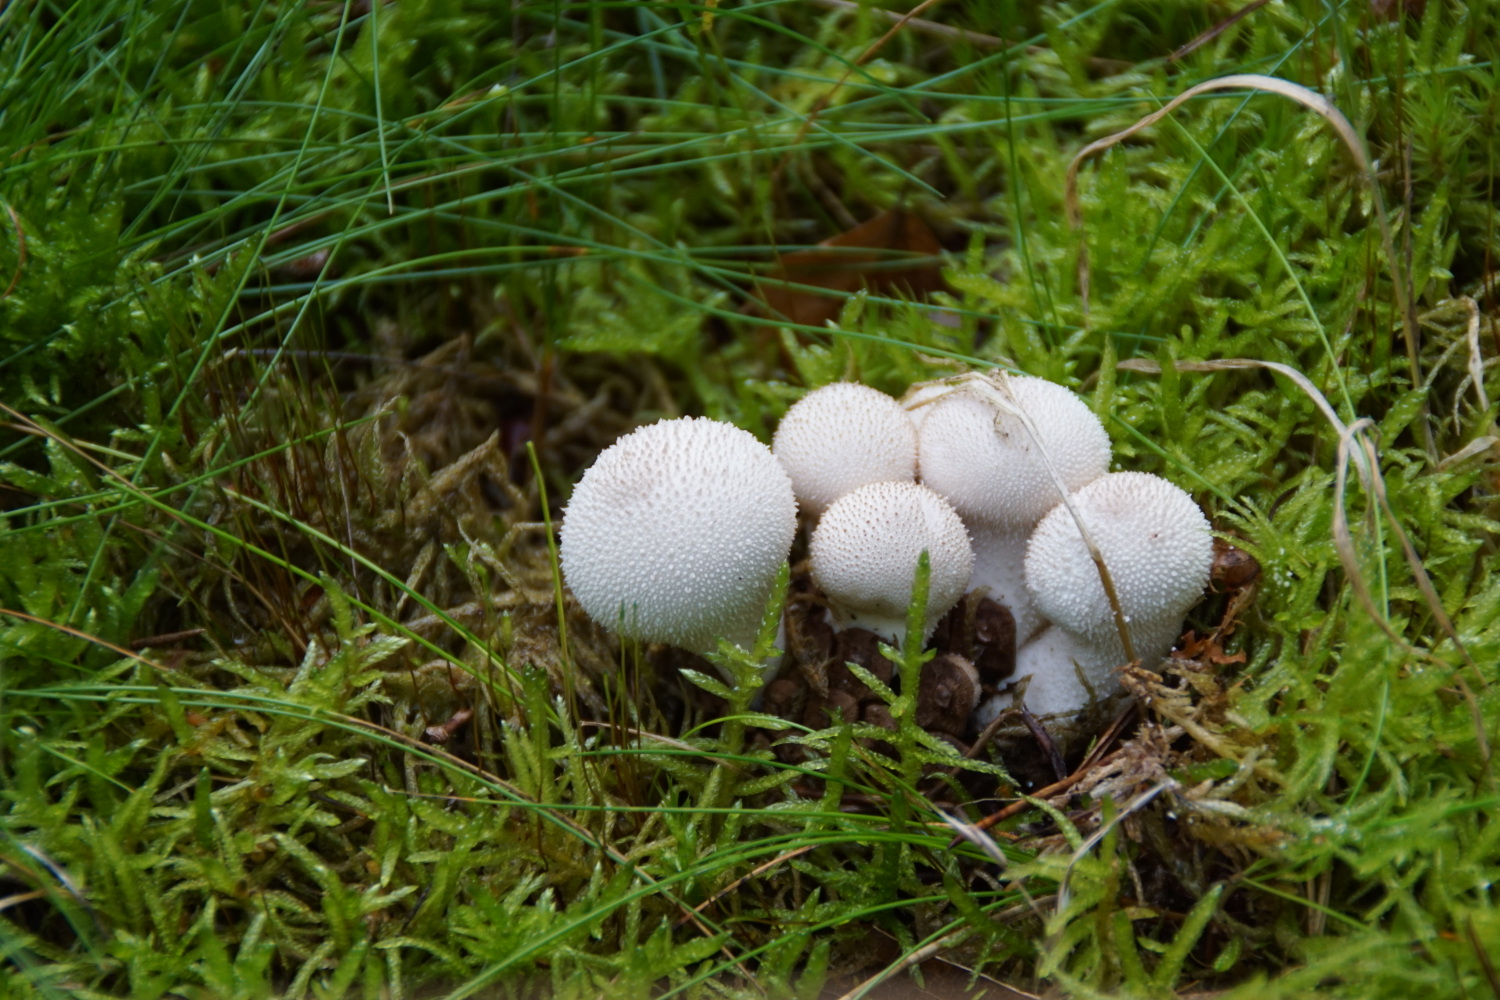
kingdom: Fungi
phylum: Basidiomycota
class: Agaricomycetes
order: Agaricales
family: Lycoperdaceae
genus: Lycoperdon
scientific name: Lycoperdon perlatum
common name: krystal-støvbold
